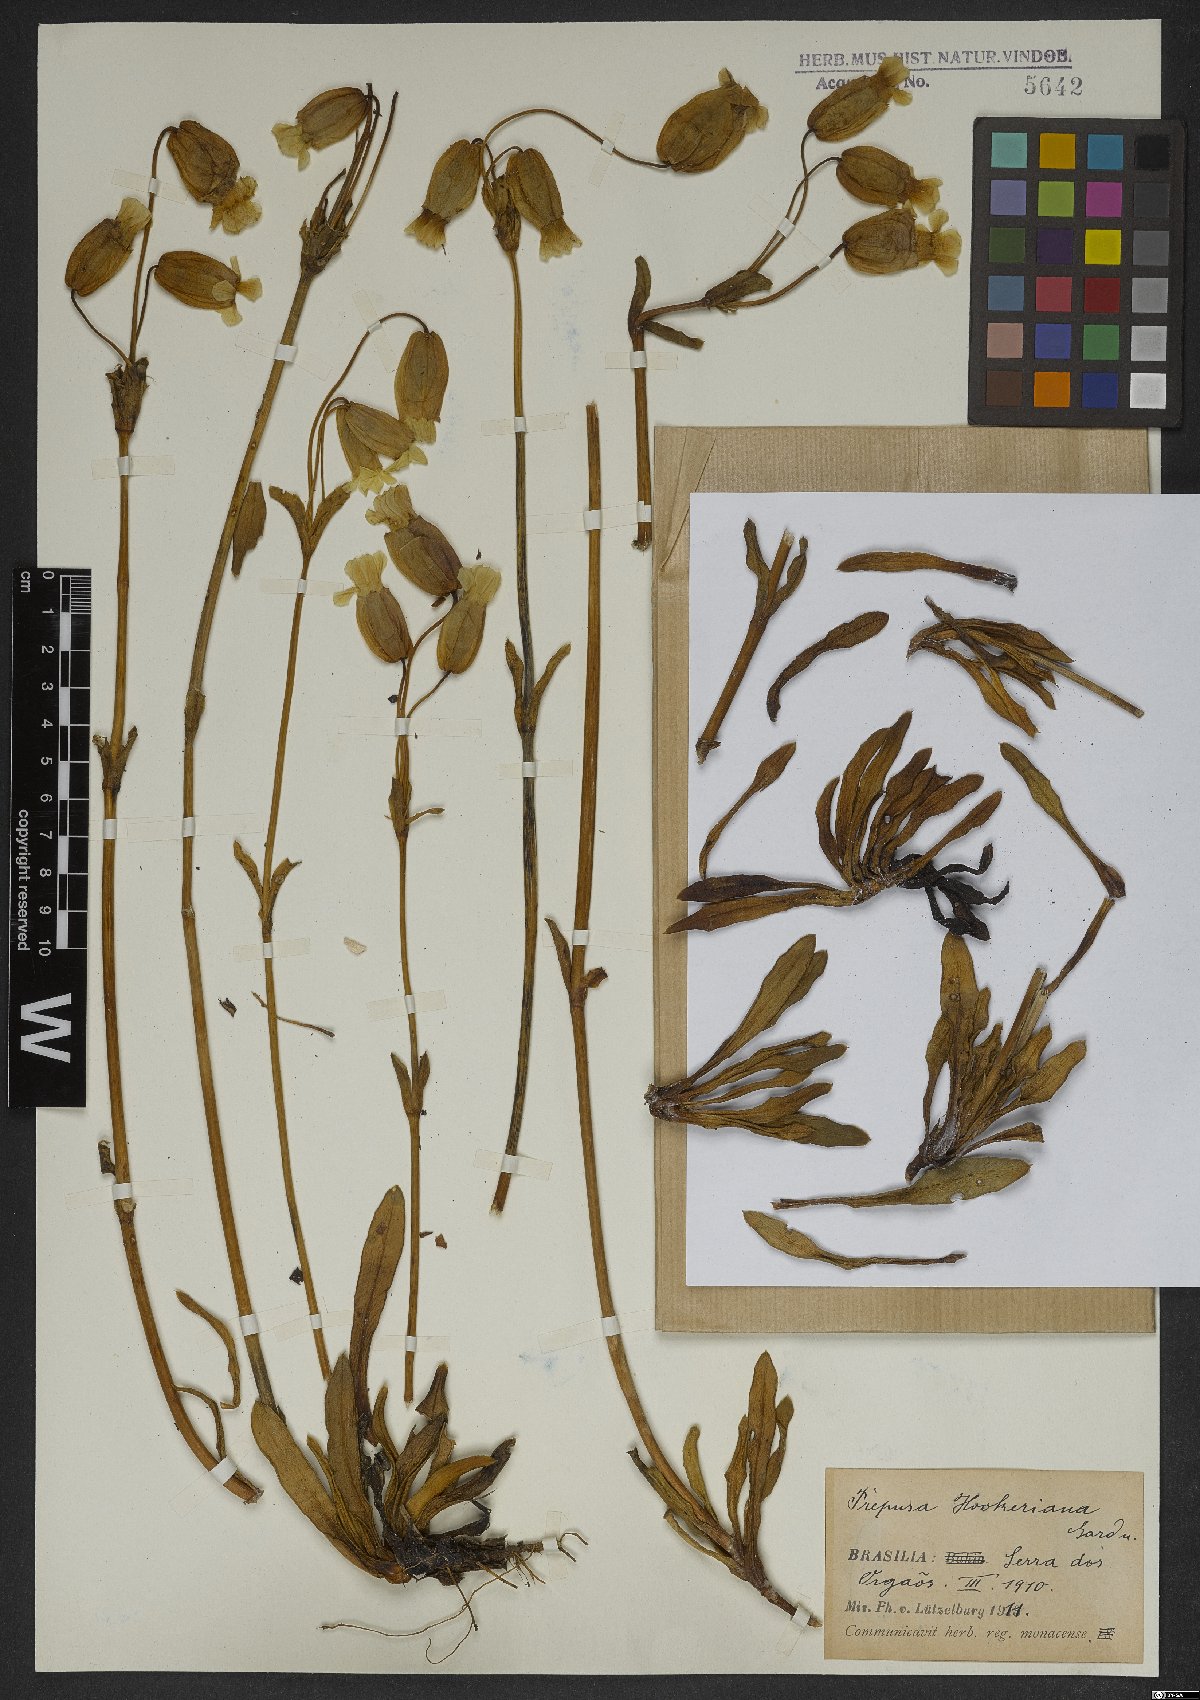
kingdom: Plantae
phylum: Tracheophyta
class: Magnoliopsida
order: Gentianales
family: Gentianaceae
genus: Prepusa
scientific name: Prepusa hookeriana
